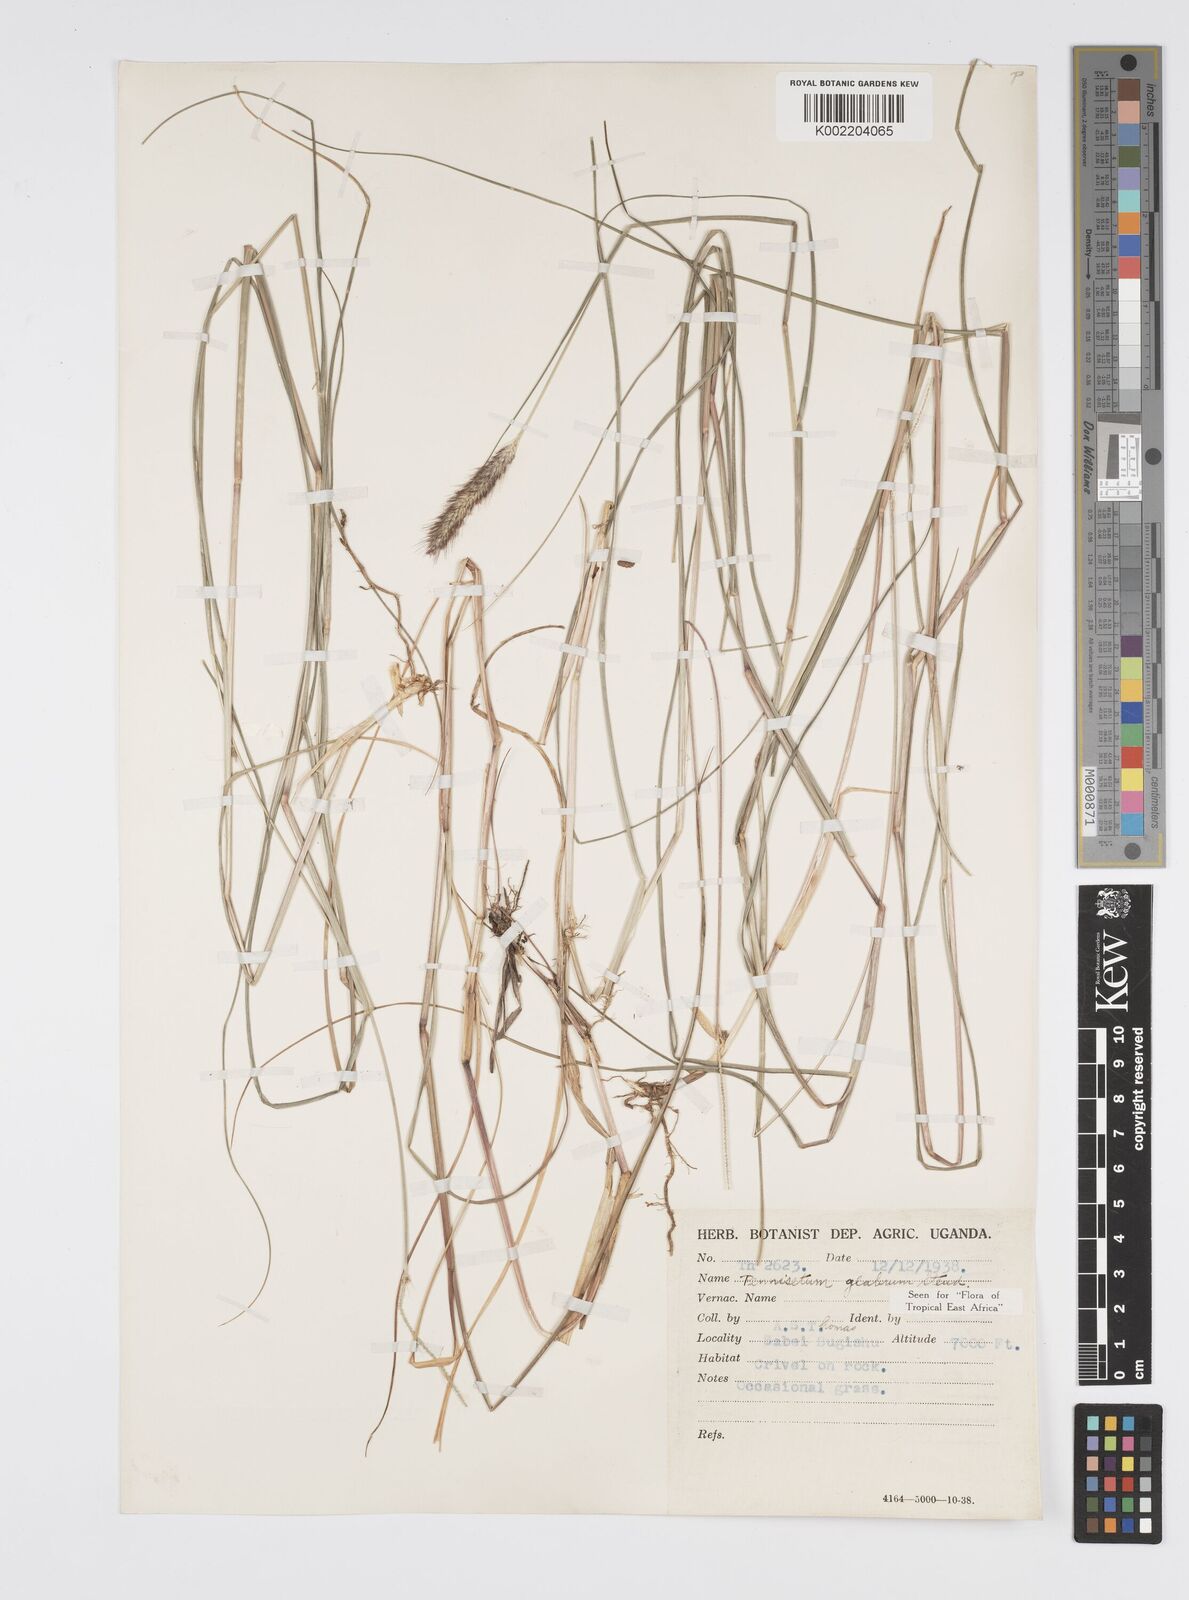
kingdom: Plantae
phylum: Tracheophyta
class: Liliopsida
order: Poales
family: Poaceae
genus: Cenchrus
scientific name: Cenchrus geniculatus
